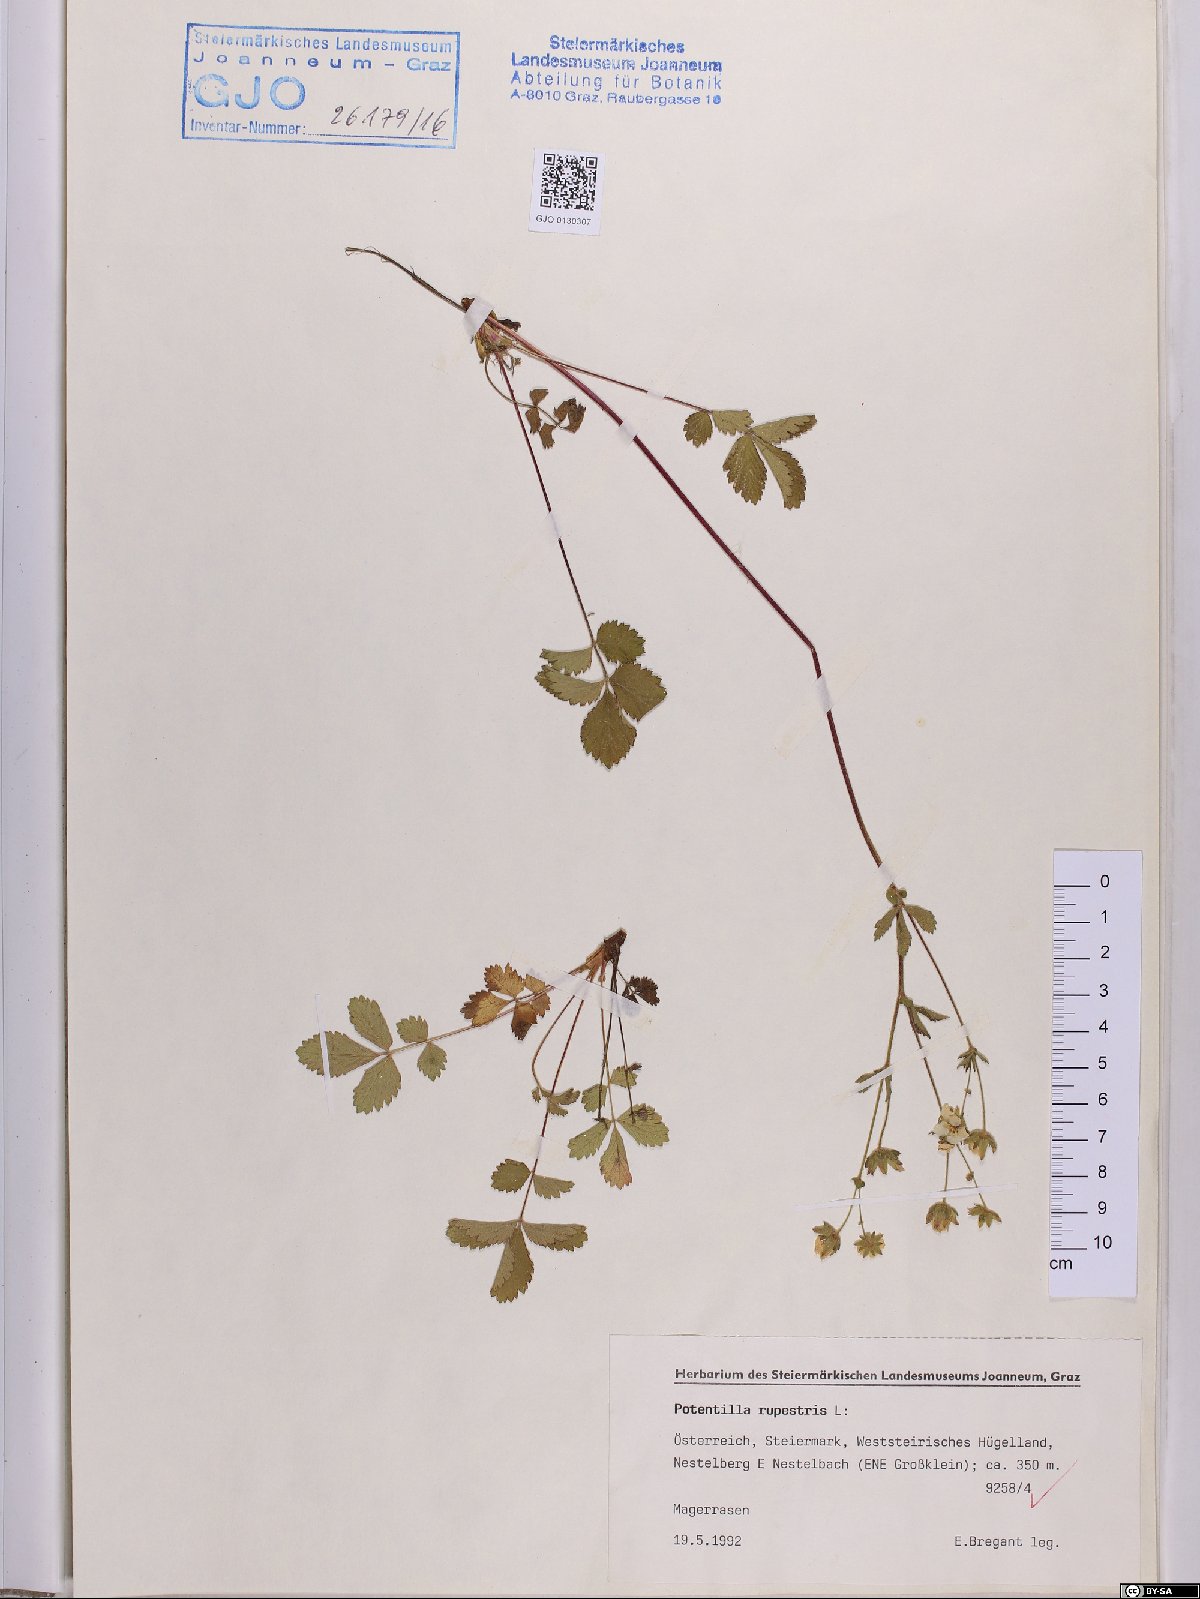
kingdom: Plantae
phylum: Tracheophyta
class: Magnoliopsida
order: Rosales
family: Rosaceae
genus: Drymocallis
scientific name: Drymocallis rupestris
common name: Rock cinquefoil
